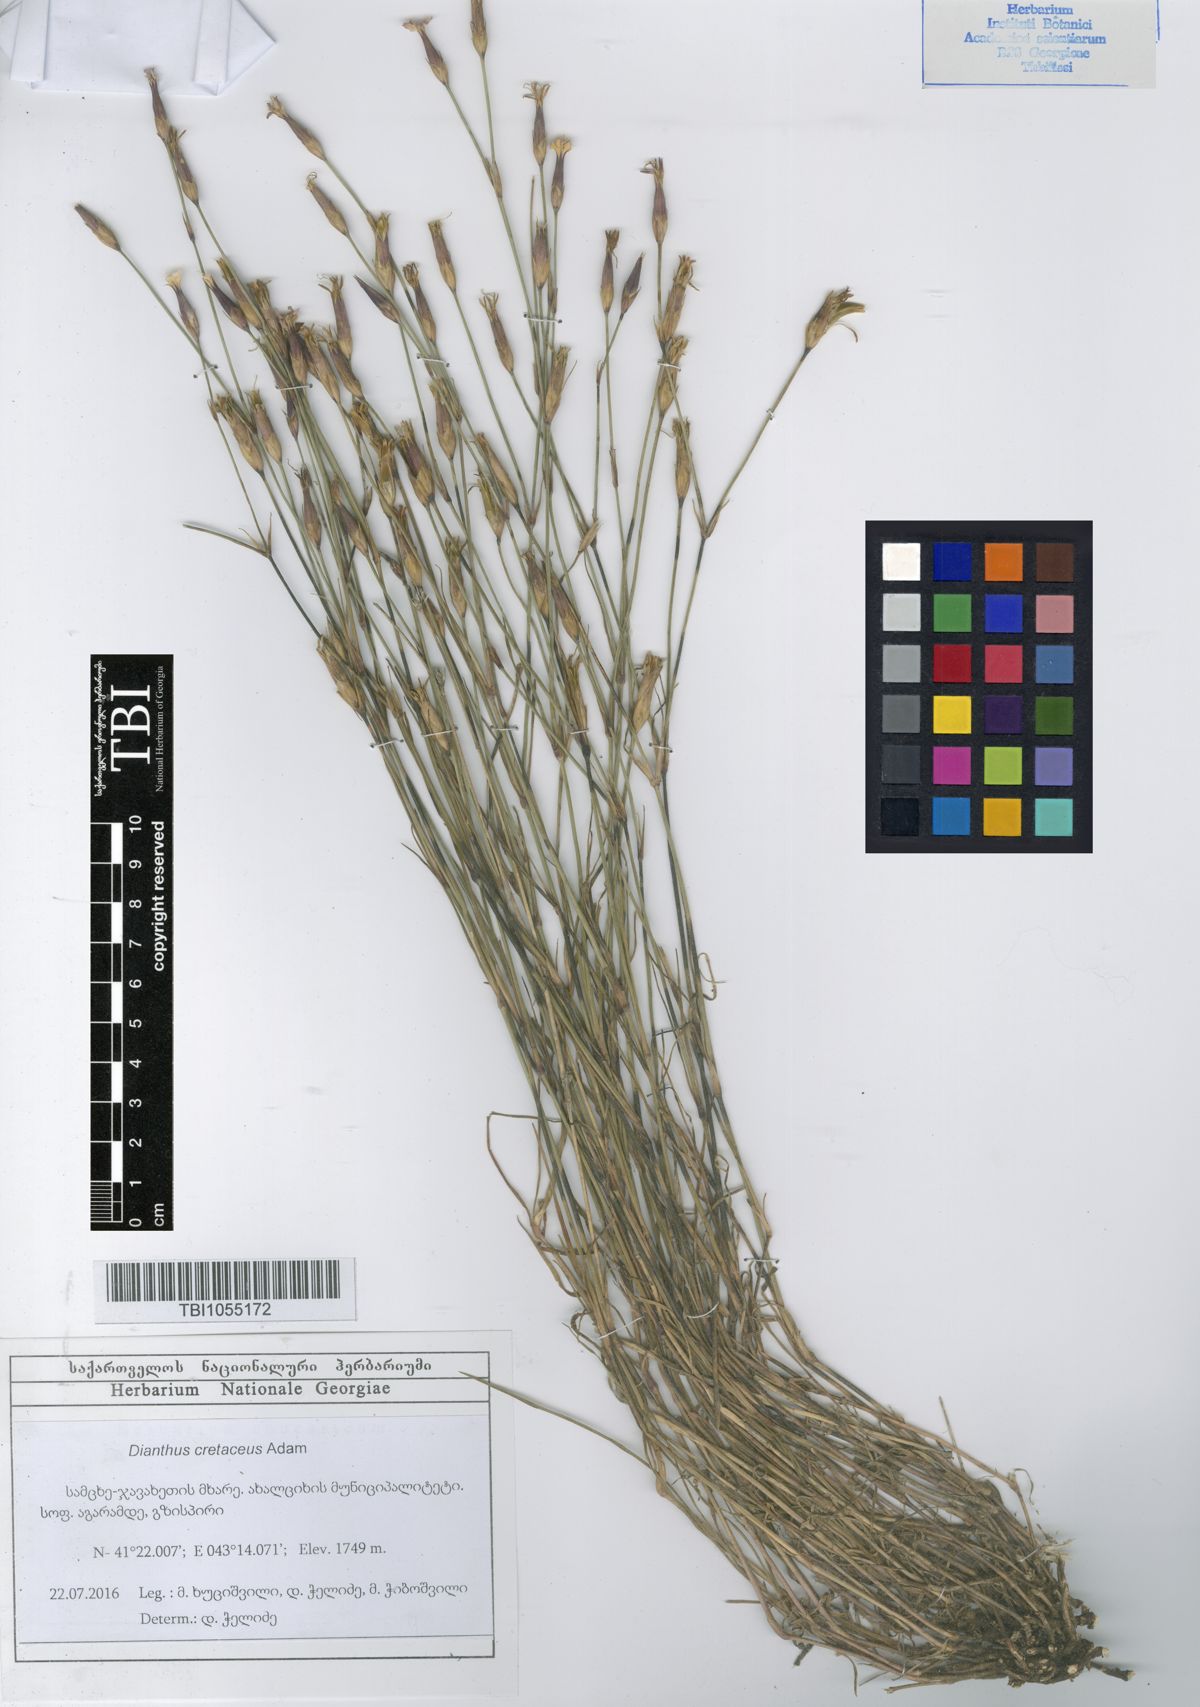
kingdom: Plantae
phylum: Tracheophyta
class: Magnoliopsida
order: Caryophyllales
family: Caryophyllaceae
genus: Dianthus
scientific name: Dianthus cretaceus
